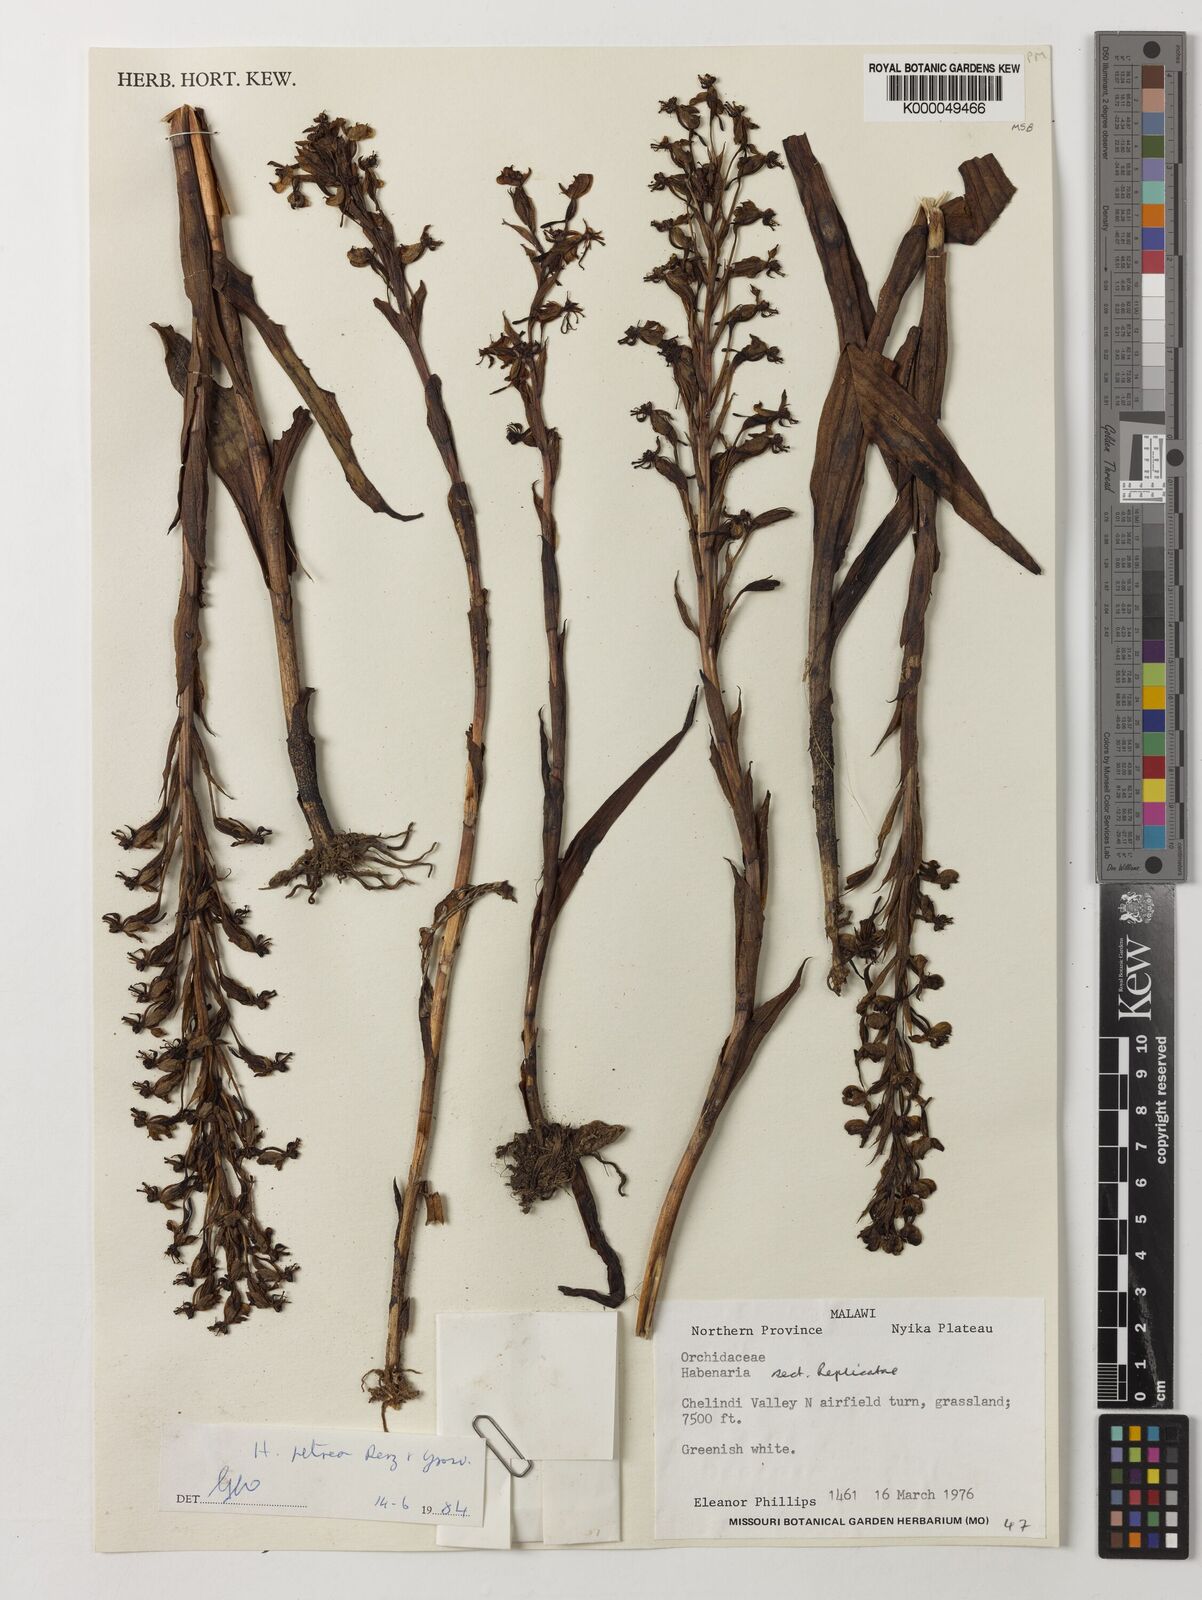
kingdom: Plantae
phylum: Tracheophyta
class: Liliopsida
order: Asparagales
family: Orchidaceae
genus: Habenaria
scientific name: Habenaria petraea
